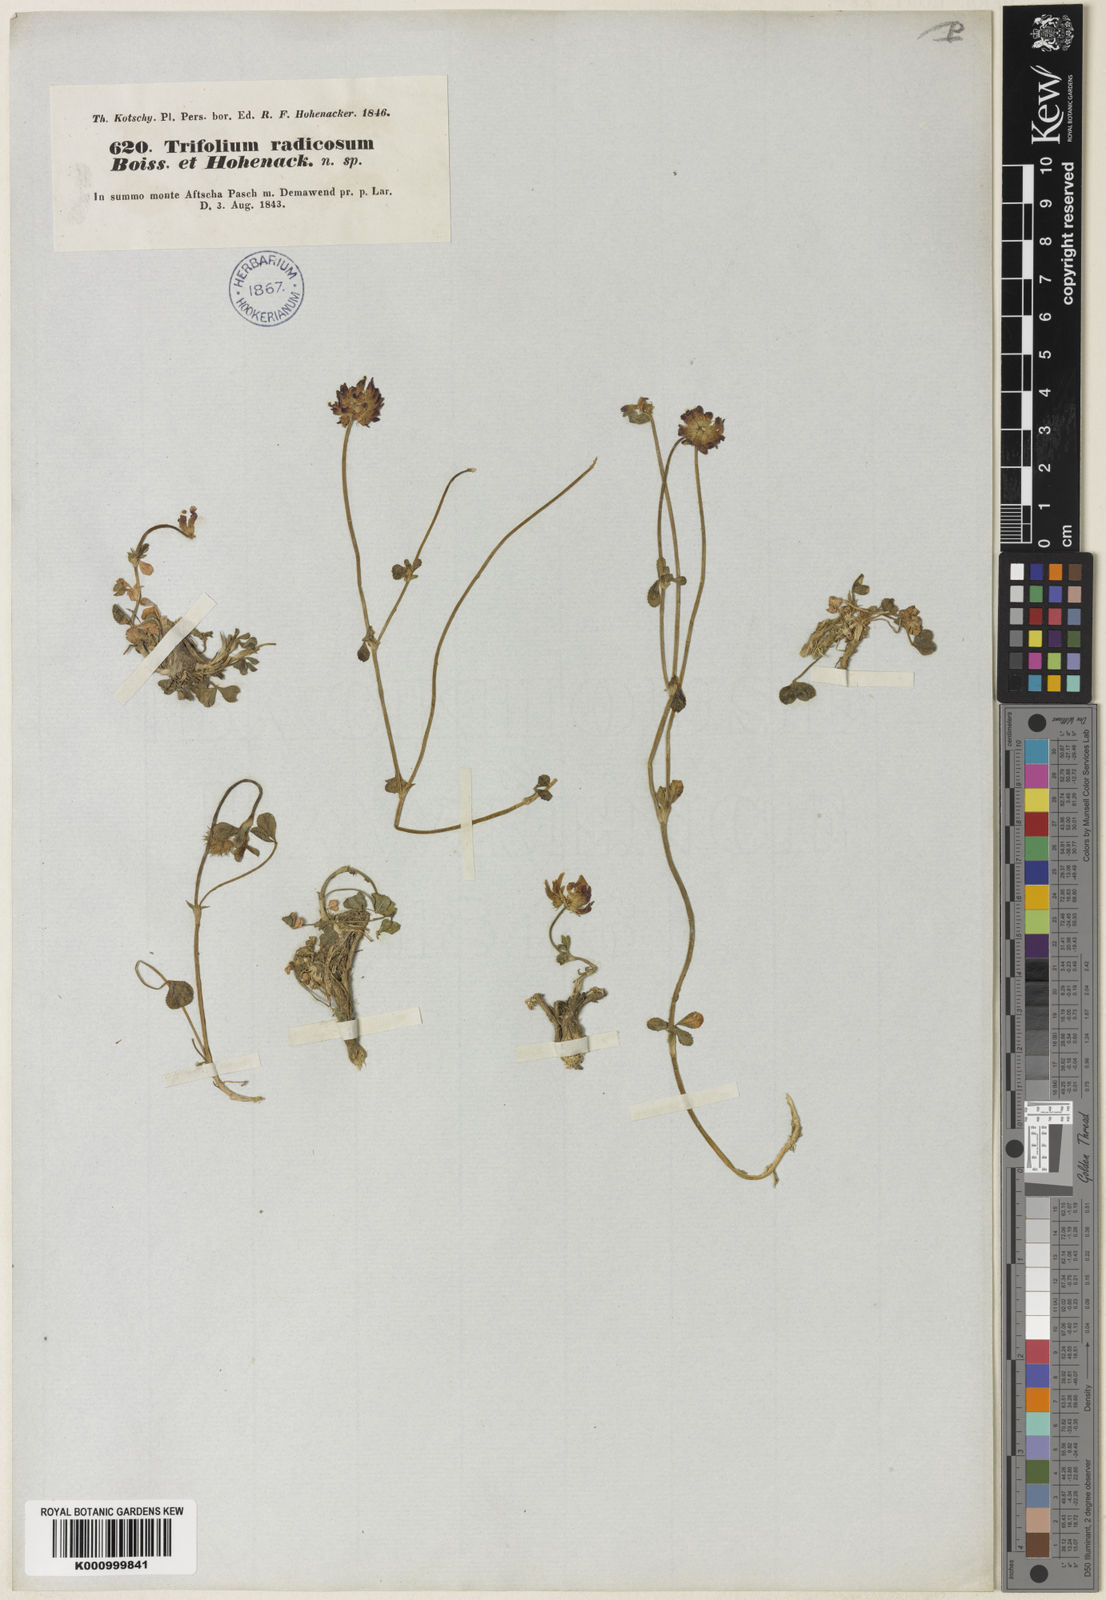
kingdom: Plantae
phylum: Tracheophyta
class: Magnoliopsida
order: Fabales
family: Fabaceae
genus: Trifolium
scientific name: Trifolium radicosum
